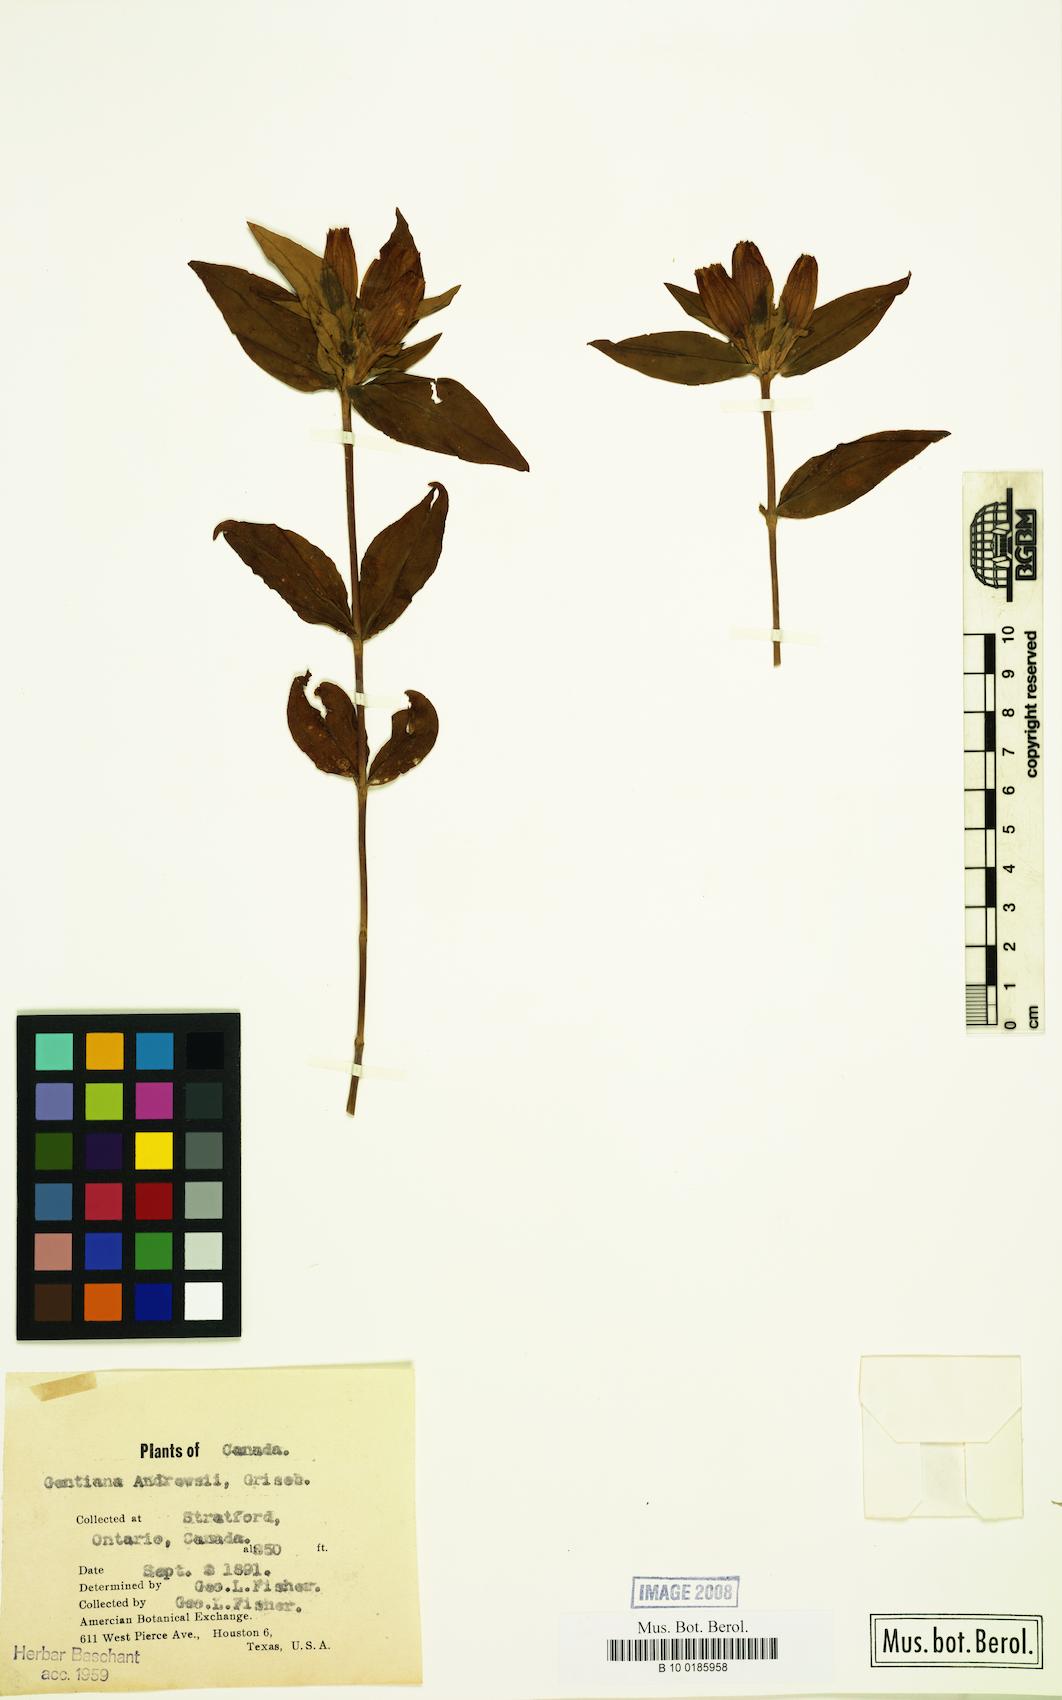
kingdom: Plantae
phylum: Tracheophyta
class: Magnoliopsida
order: Gentianales
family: Gentianaceae
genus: Gentiana
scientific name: Gentiana andrewsii
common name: Bottle gentian
